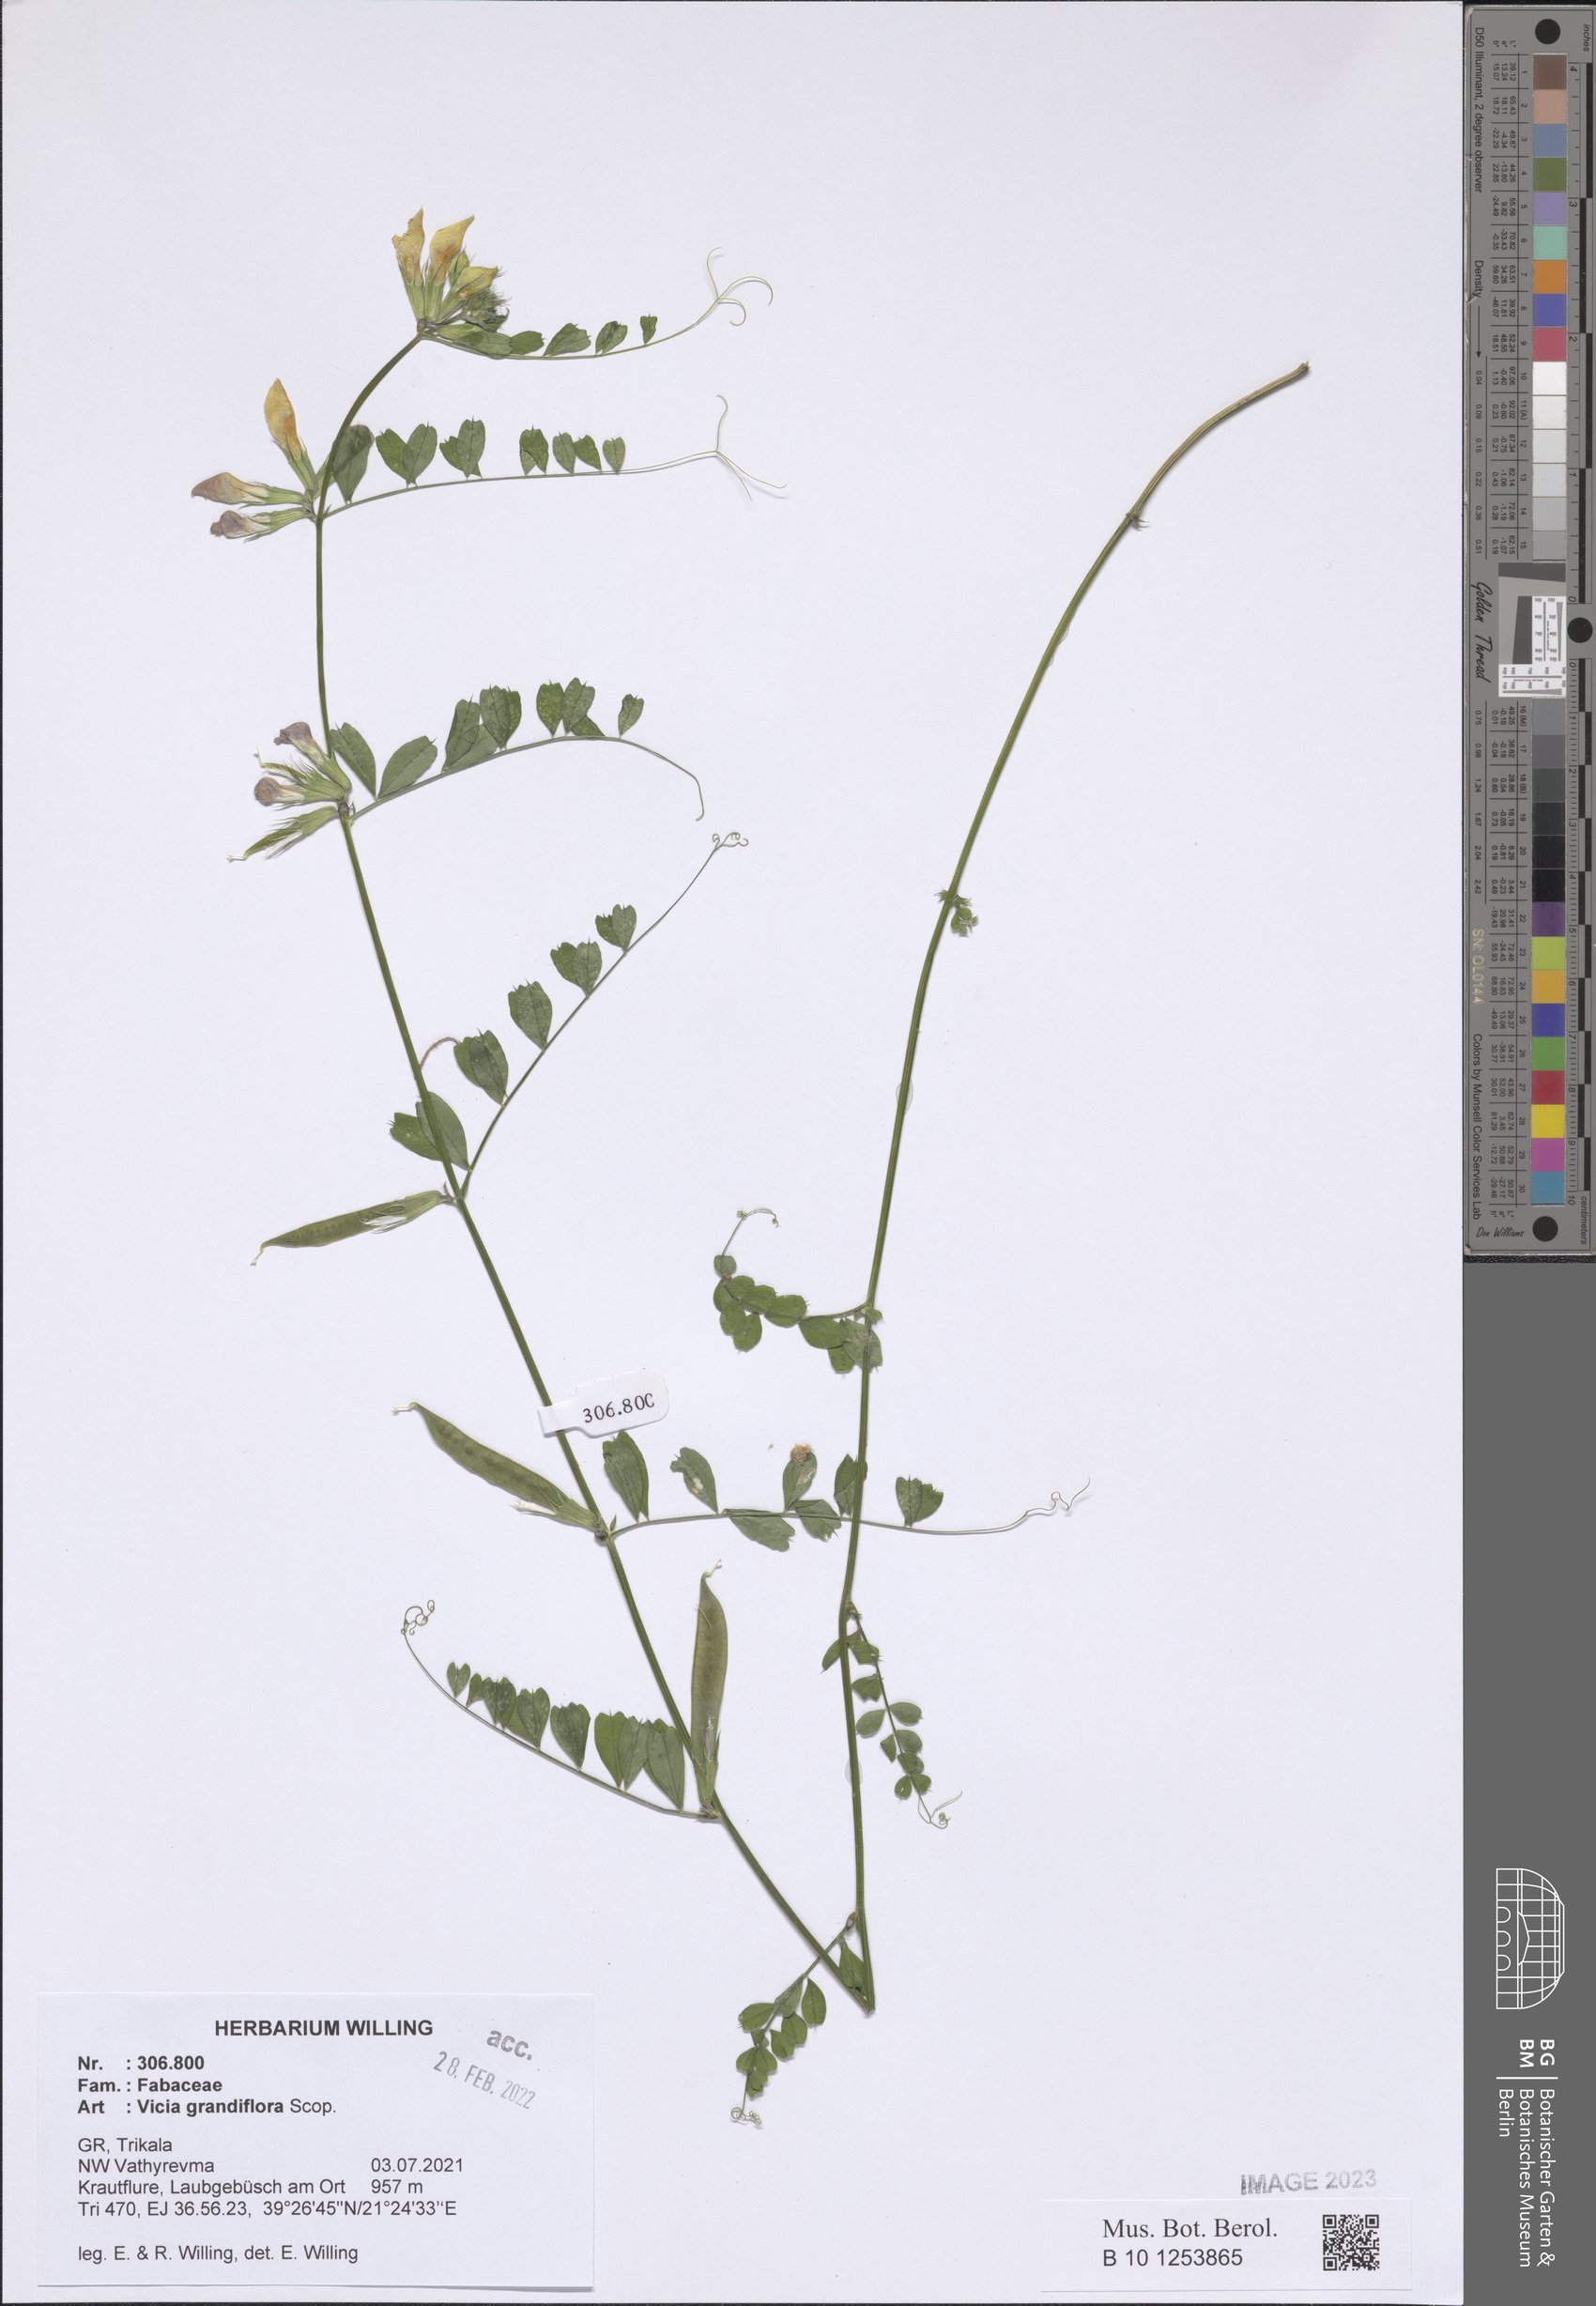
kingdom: Plantae
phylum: Tracheophyta
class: Magnoliopsida
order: Fabales
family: Fabaceae
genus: Vicia
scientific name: Vicia grandiflora
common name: Large yellow vetch
